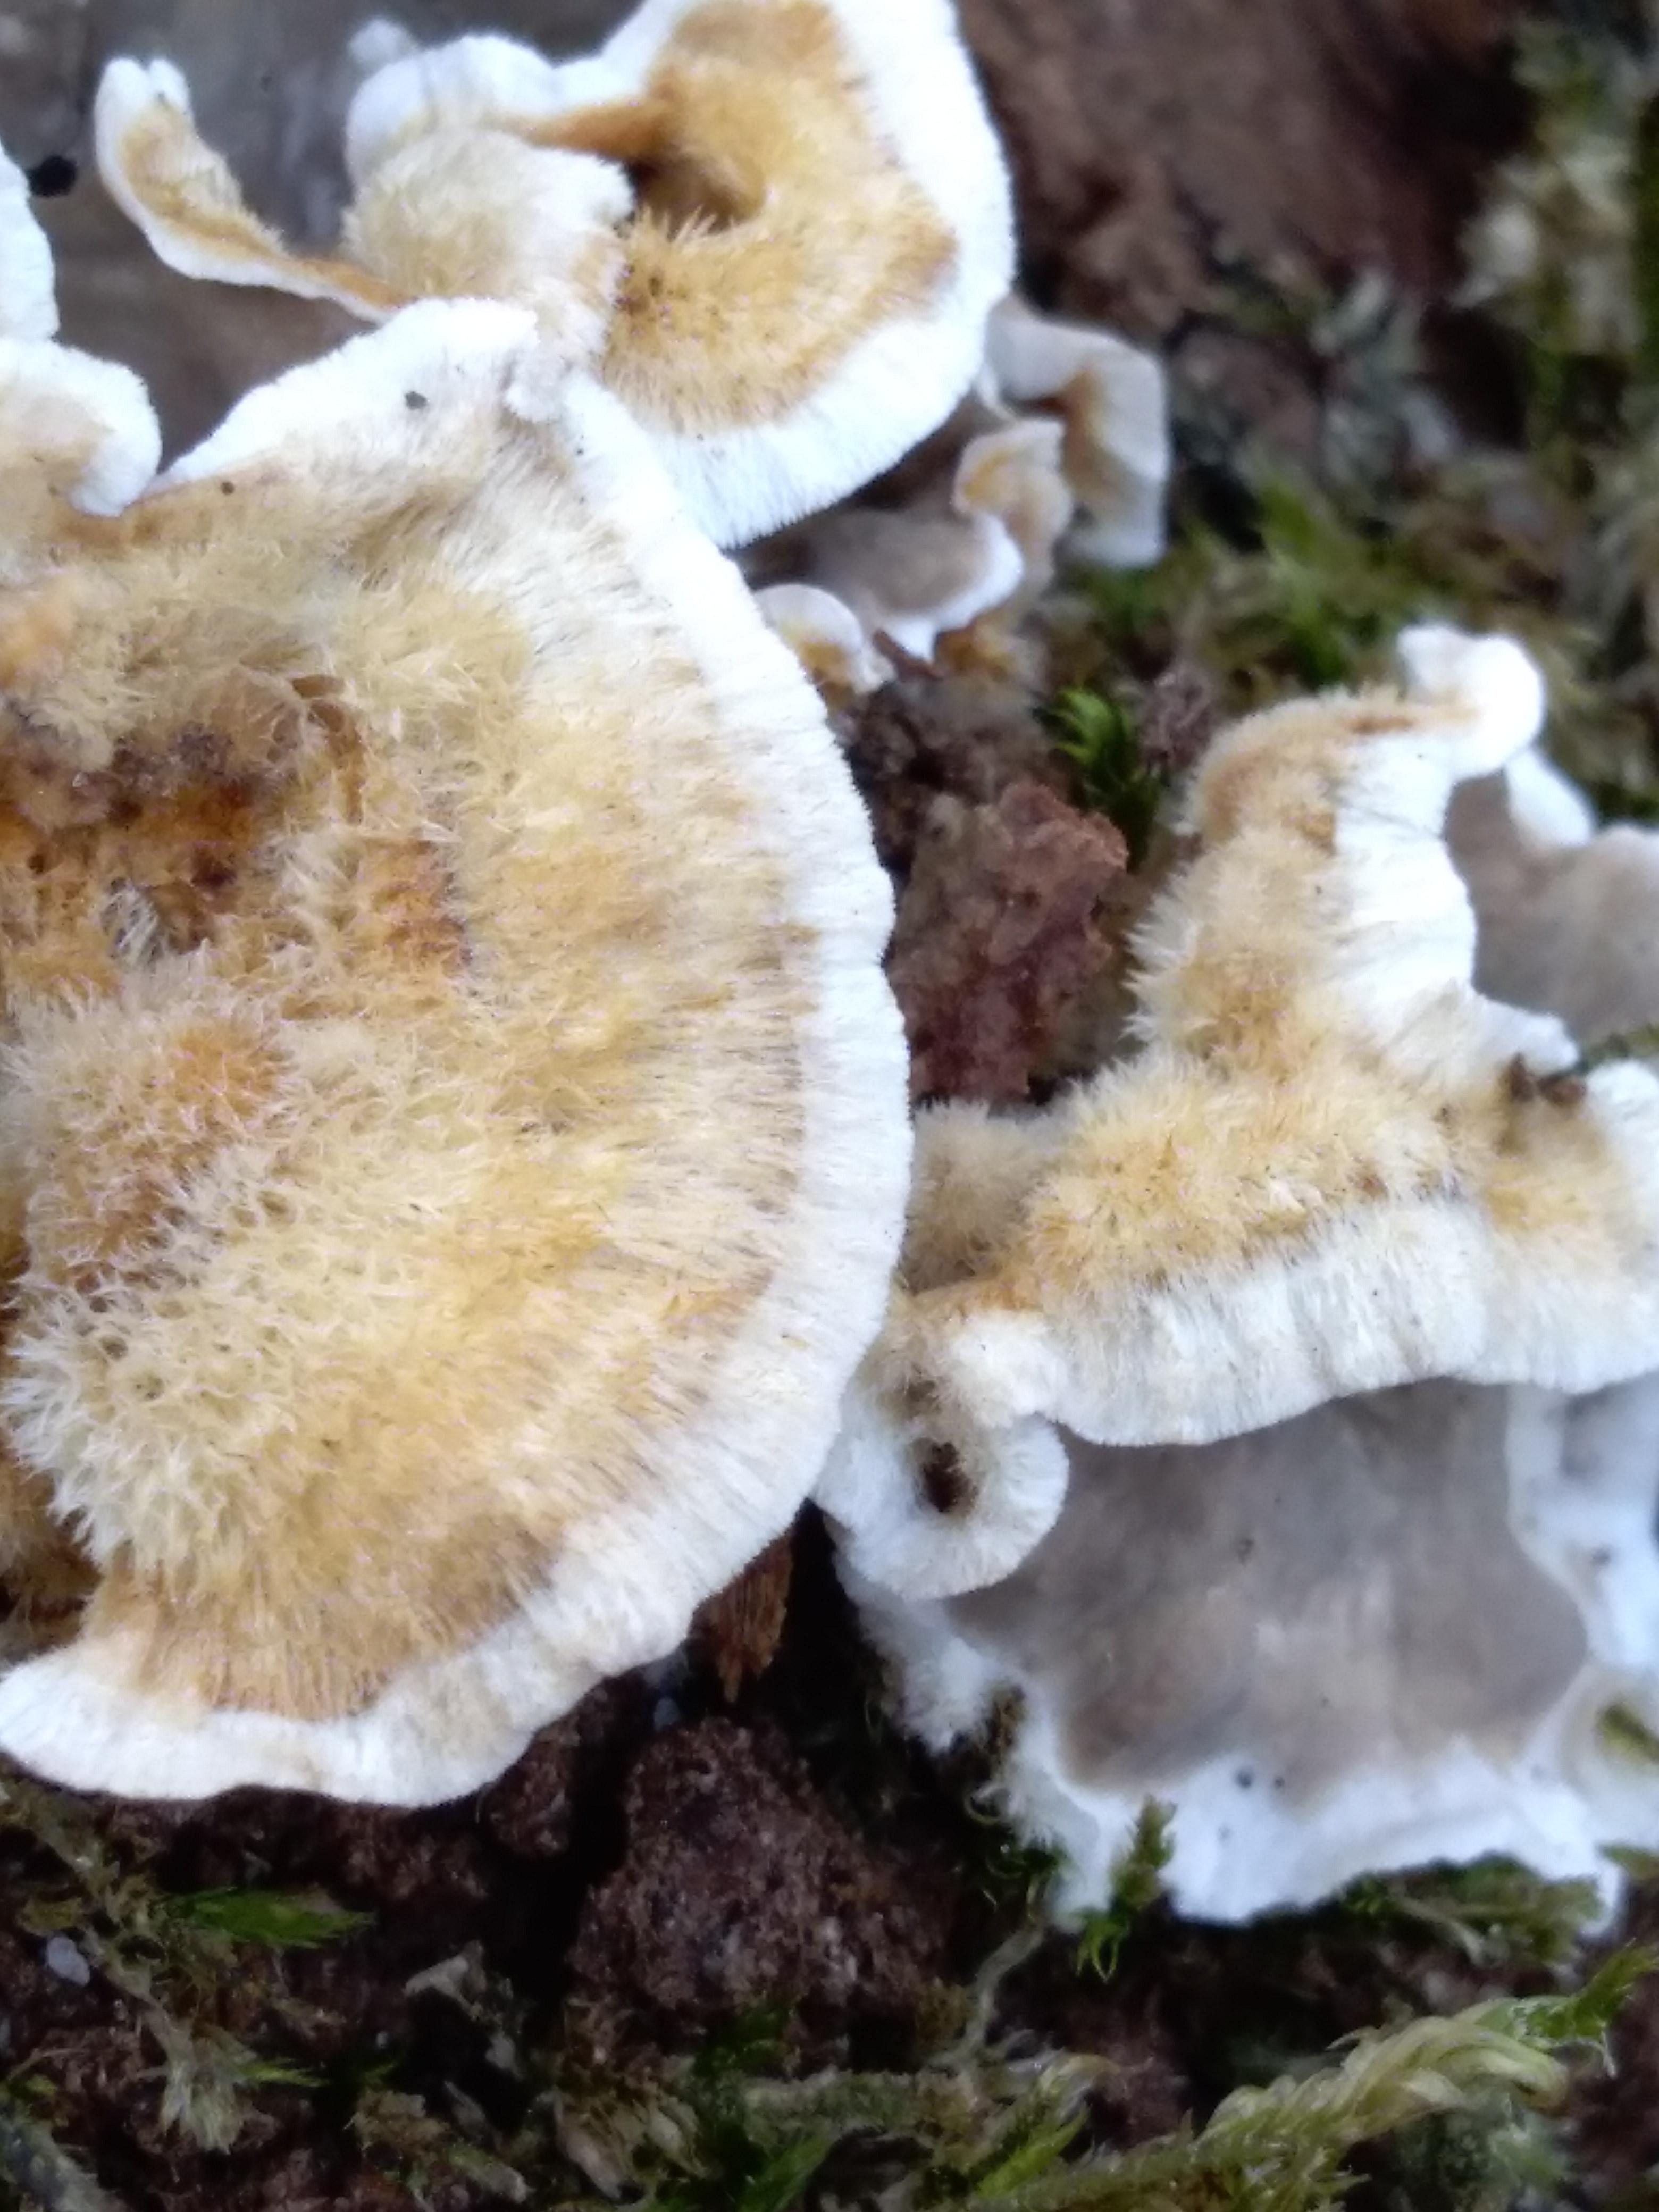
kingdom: Fungi
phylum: Basidiomycota
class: Agaricomycetes
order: Russulales
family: Stereaceae
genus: Stereum
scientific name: Stereum
